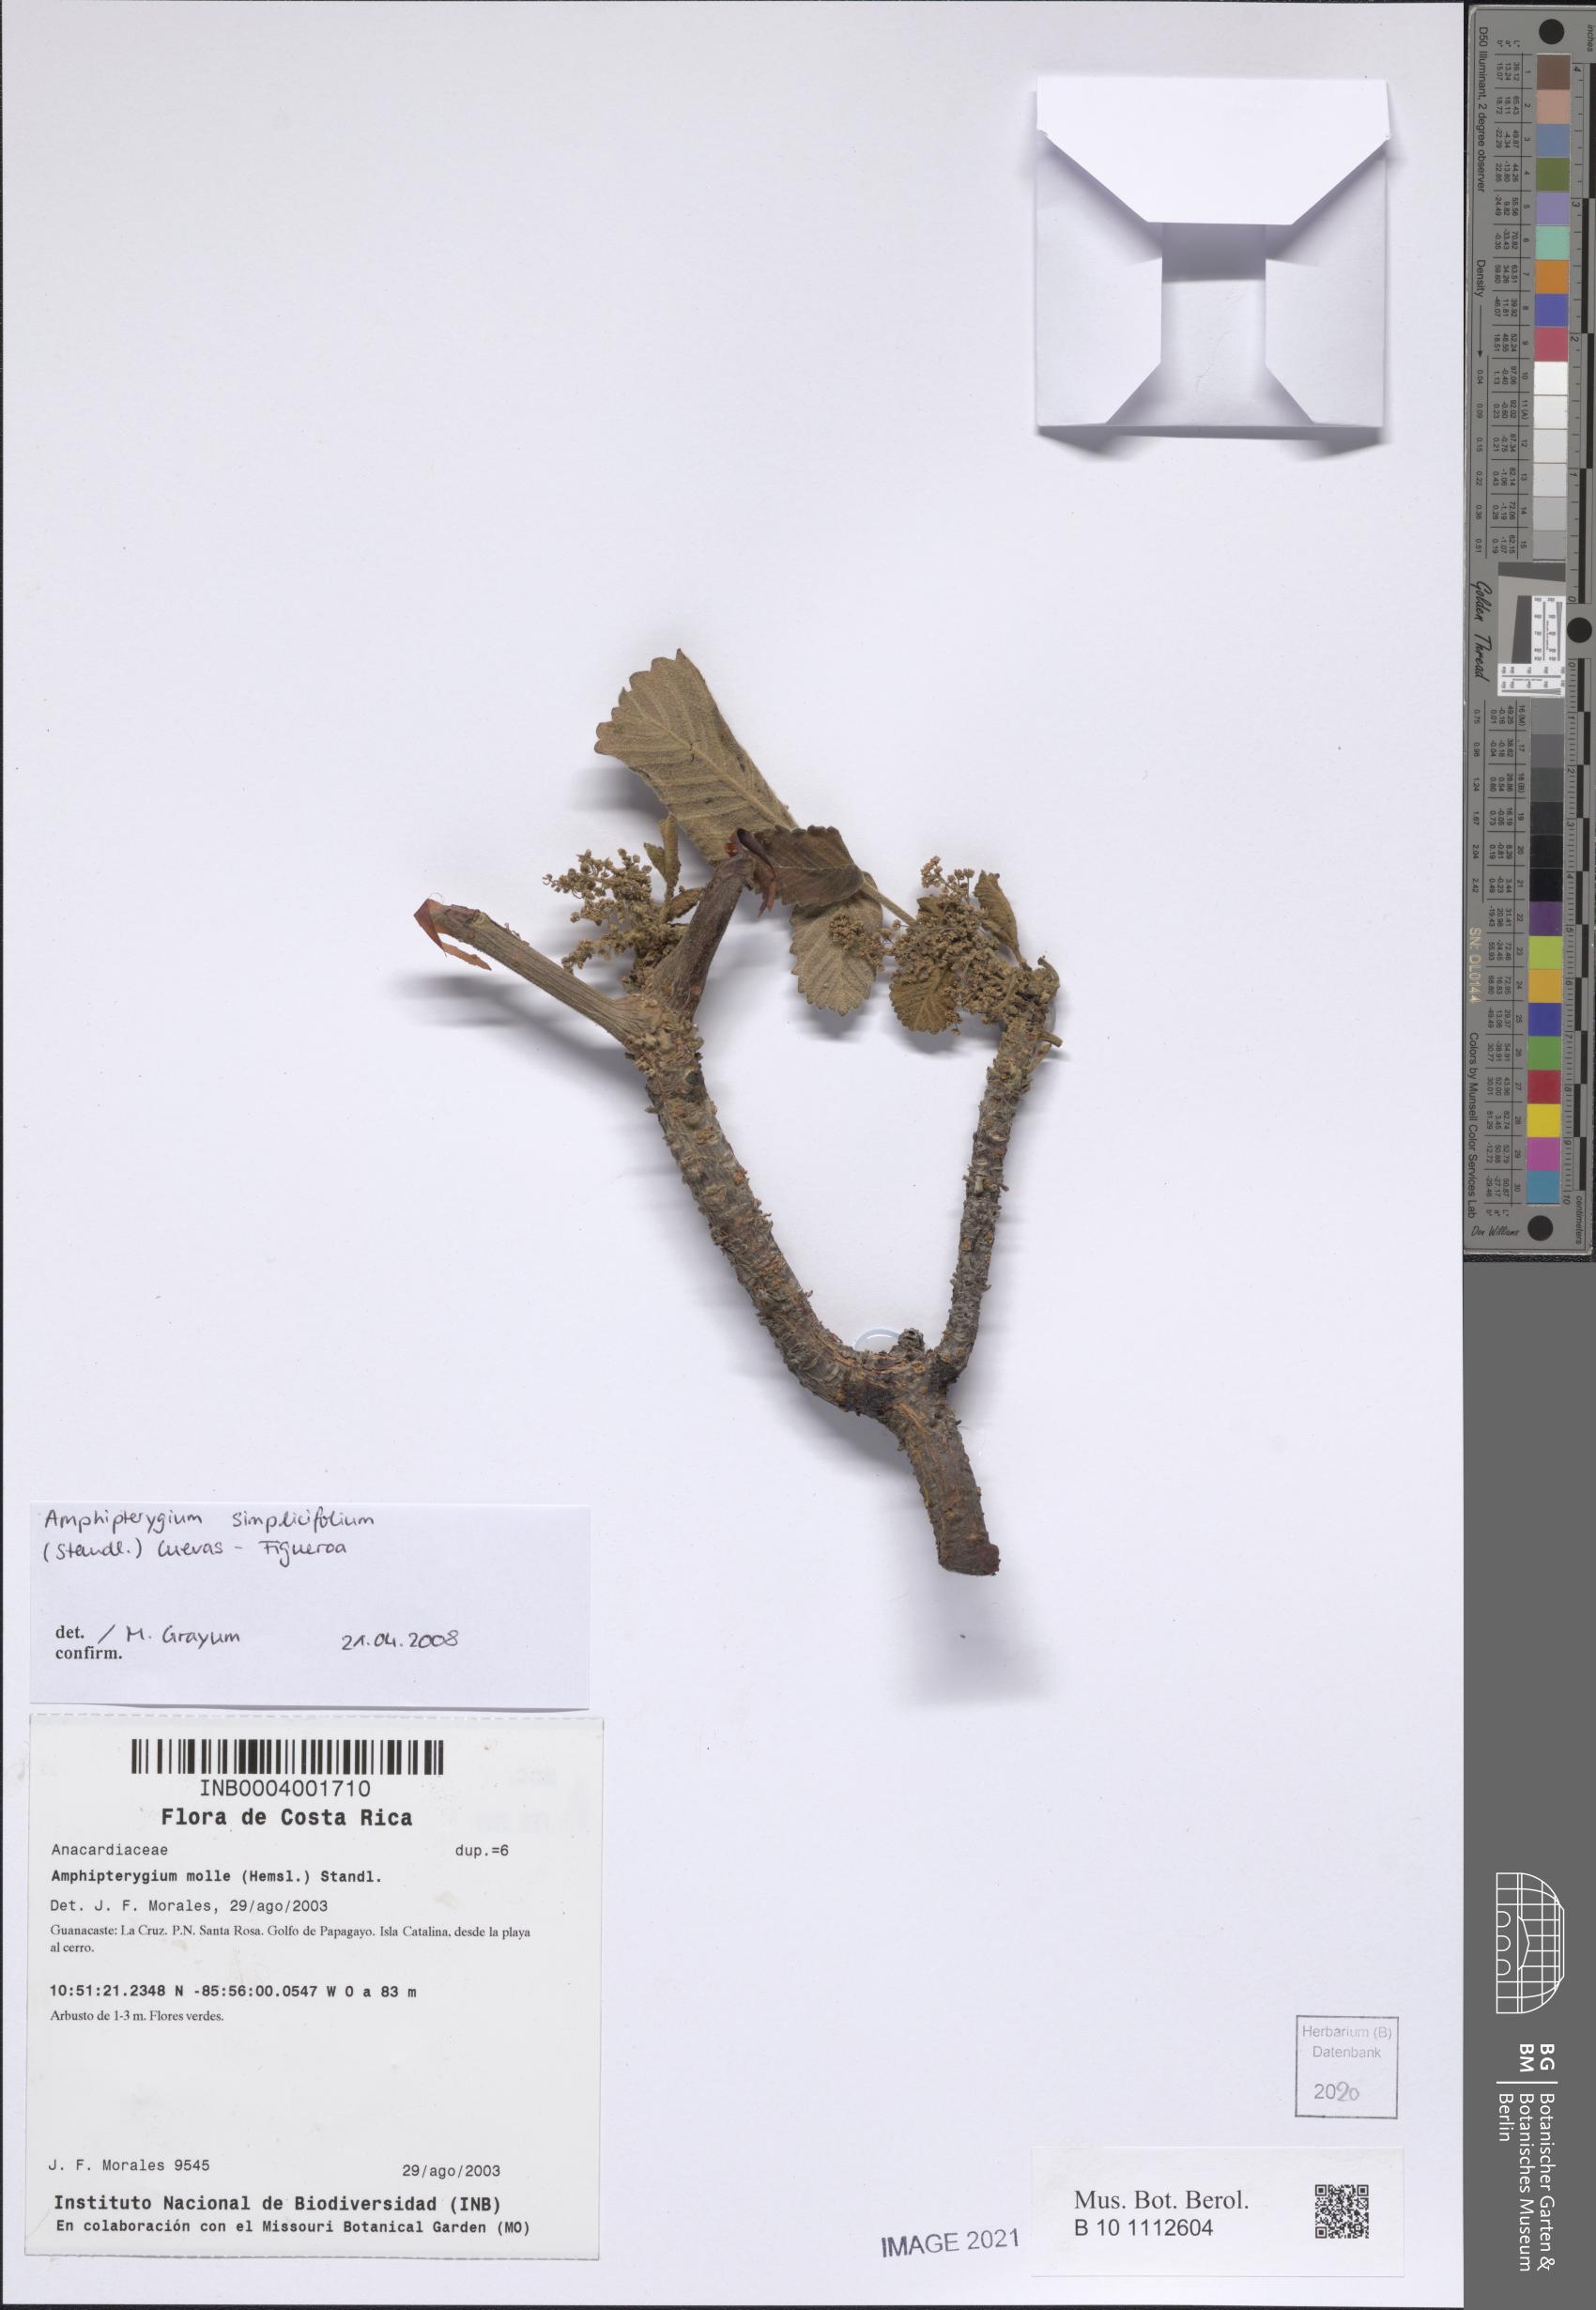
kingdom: Plantae
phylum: Tracheophyta
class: Magnoliopsida
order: Sapindales
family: Anacardiaceae
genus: Amphipterygium
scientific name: Amphipterygium simplicifolium
